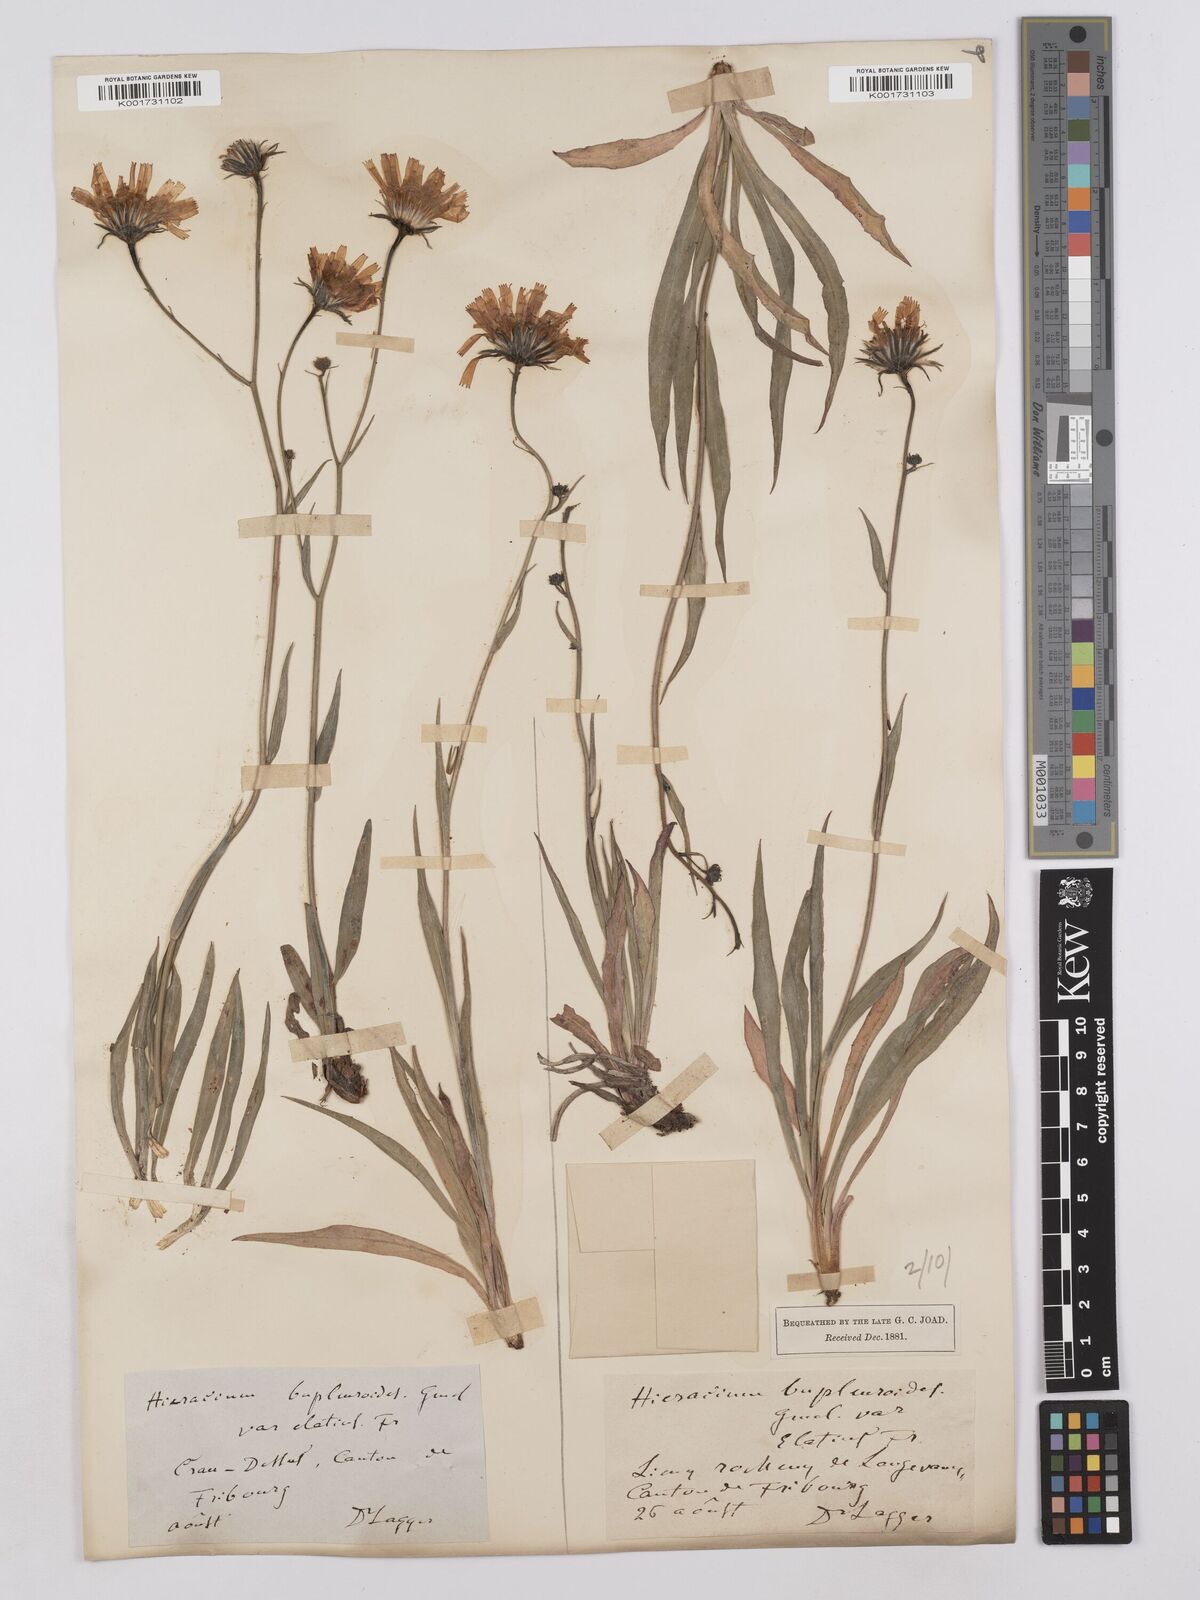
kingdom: Plantae
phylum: Tracheophyta
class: Magnoliopsida
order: Asterales
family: Asteraceae
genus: Hieracium
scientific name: Hieracium bupleuroides
